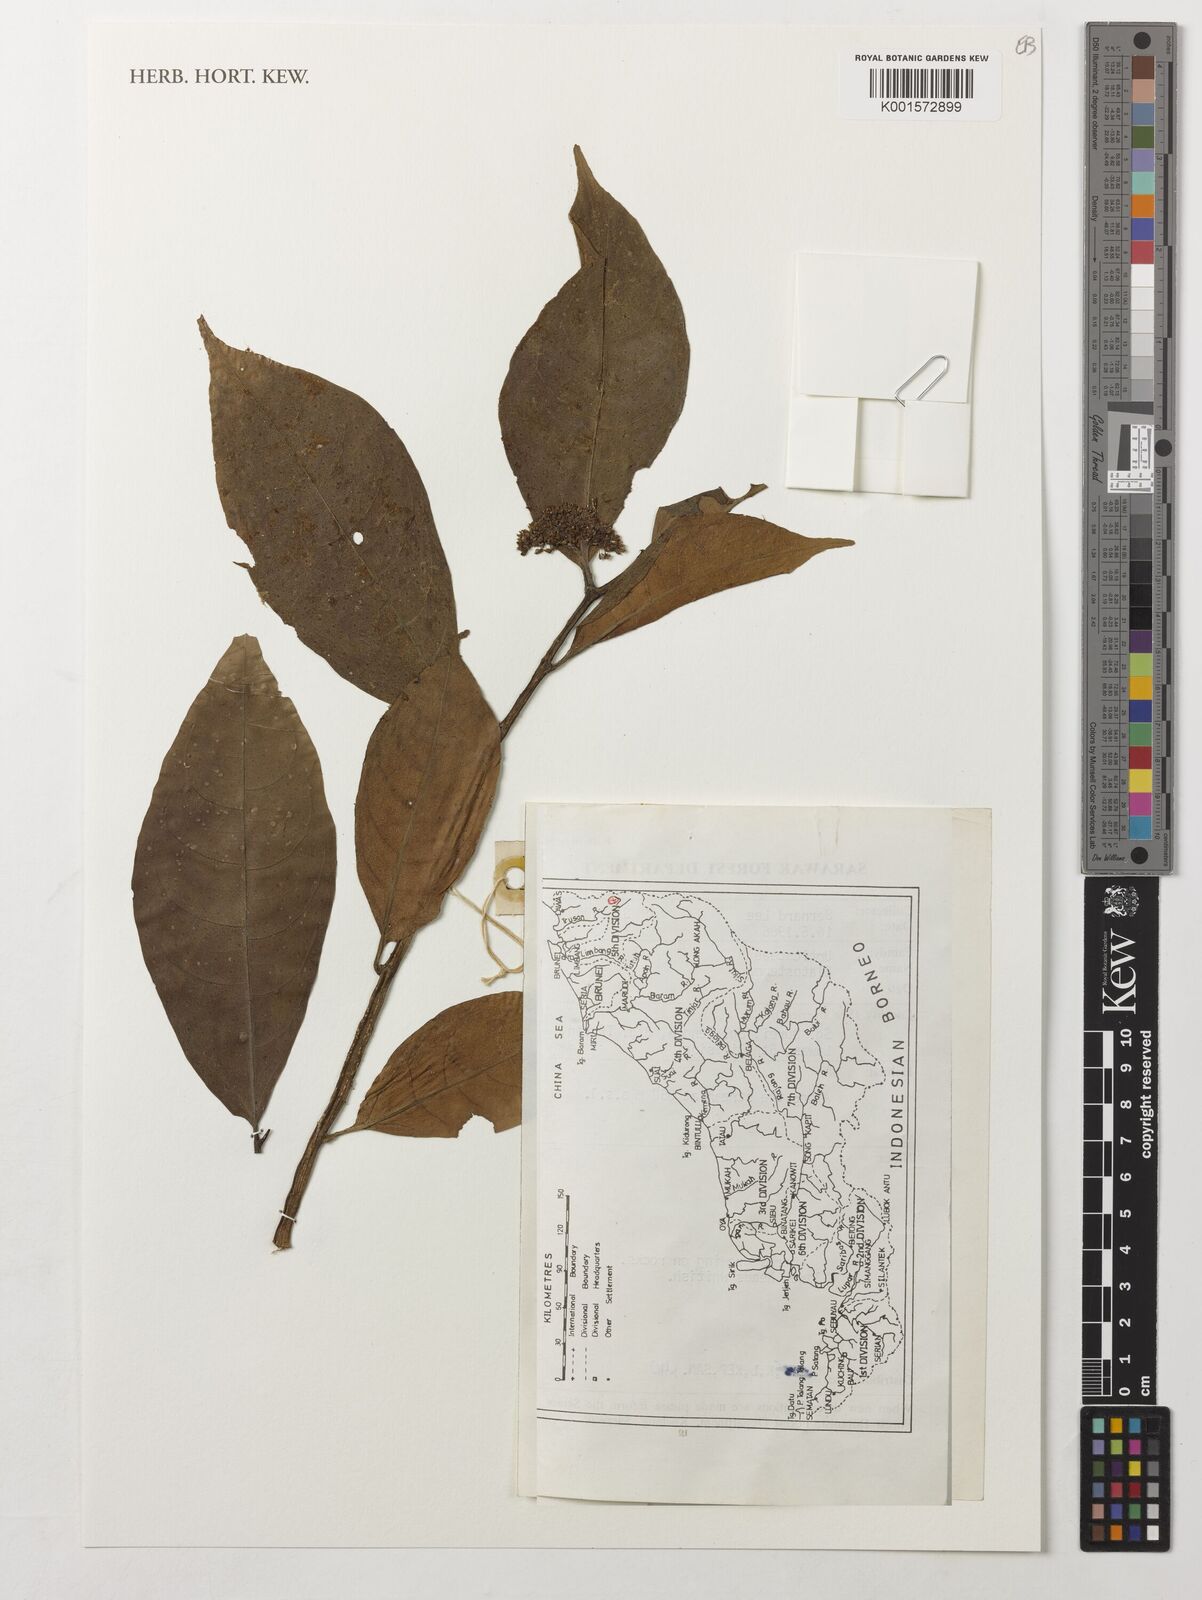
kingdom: Plantae
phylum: Tracheophyta
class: Magnoliopsida
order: Rosales
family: Urticaceae
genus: Elatostema
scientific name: Elatostema
